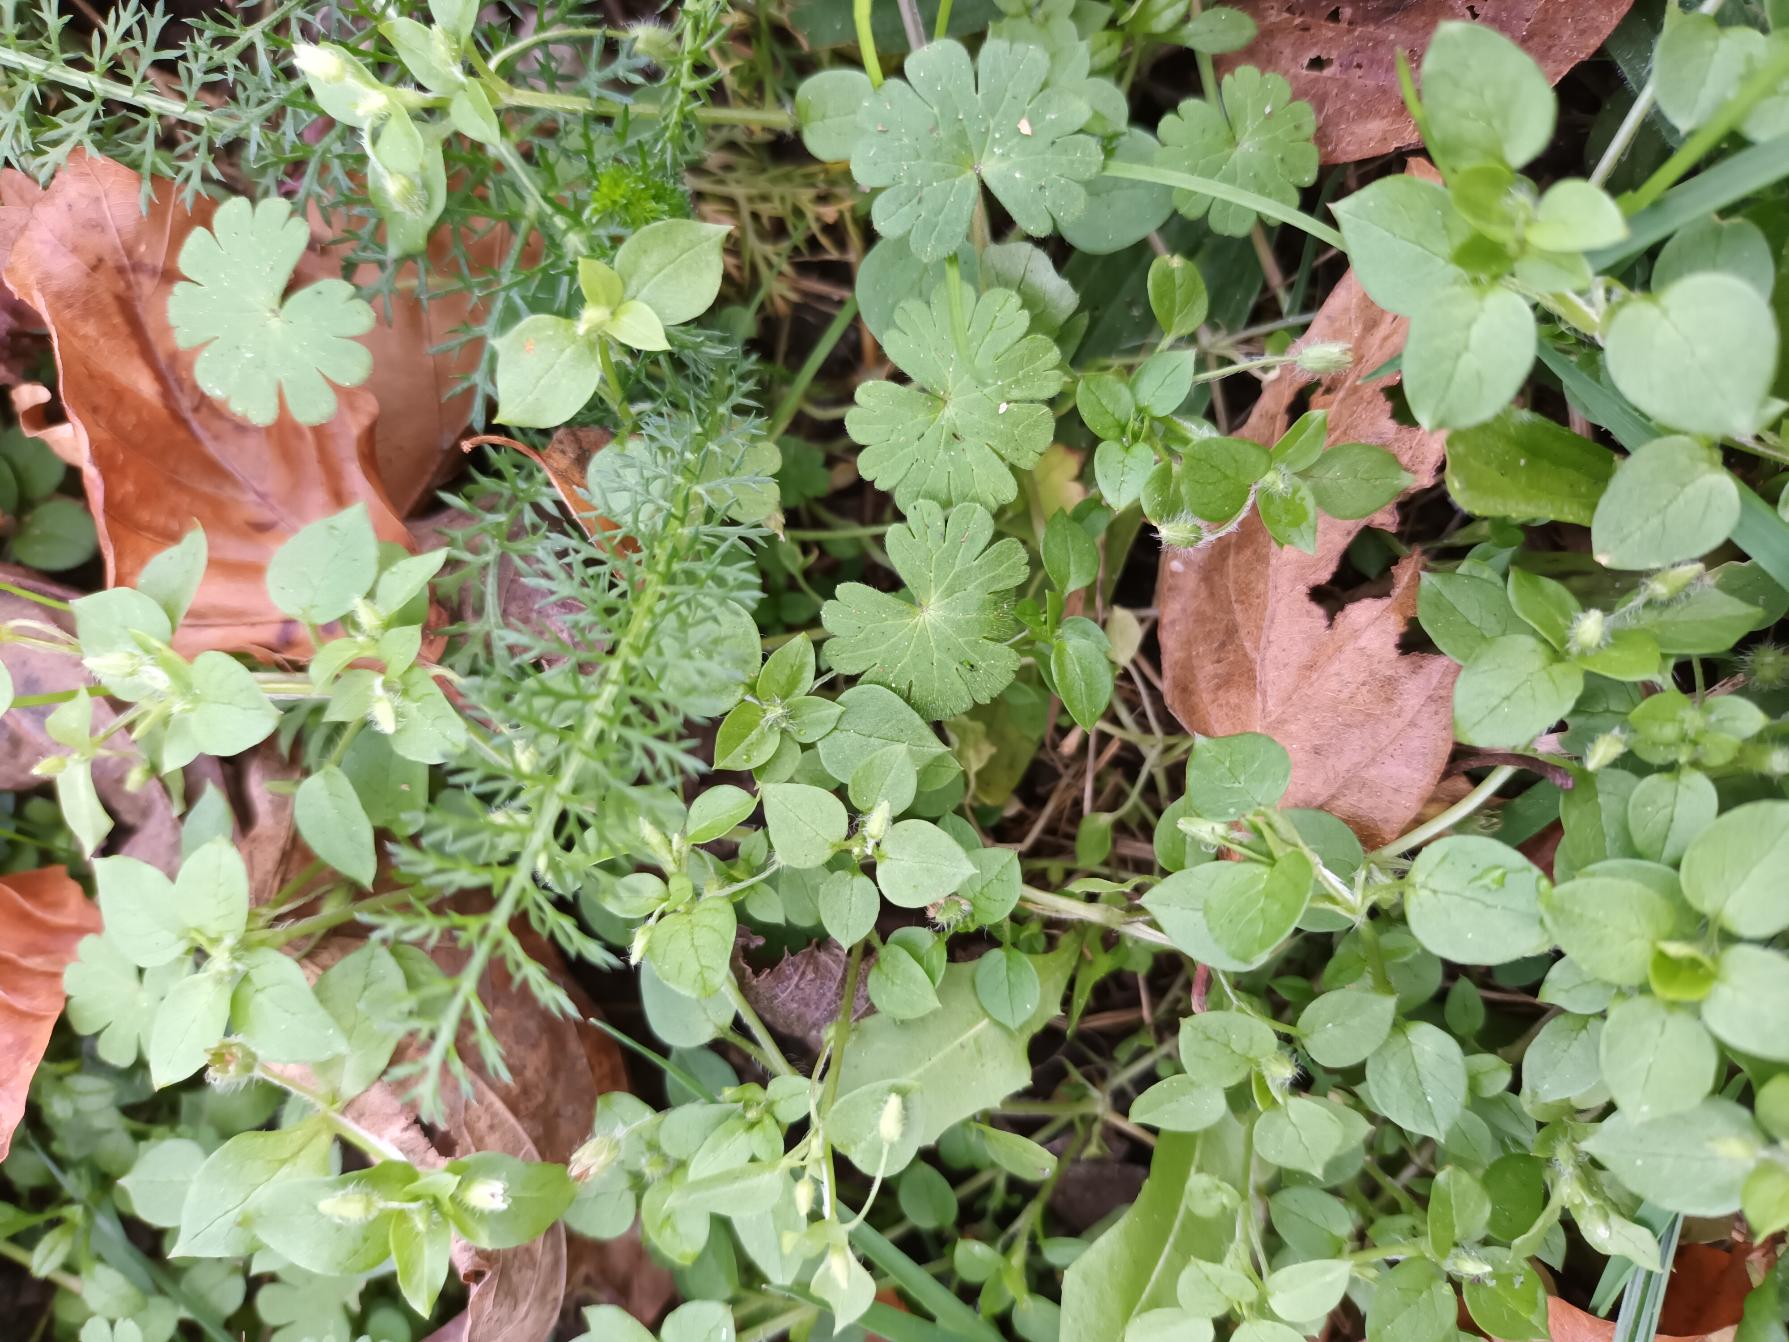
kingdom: Plantae
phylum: Tracheophyta
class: Magnoliopsida
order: Caryophyllales
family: Caryophyllaceae
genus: Stellaria
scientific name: Stellaria media
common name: Almindelig fuglegræs
